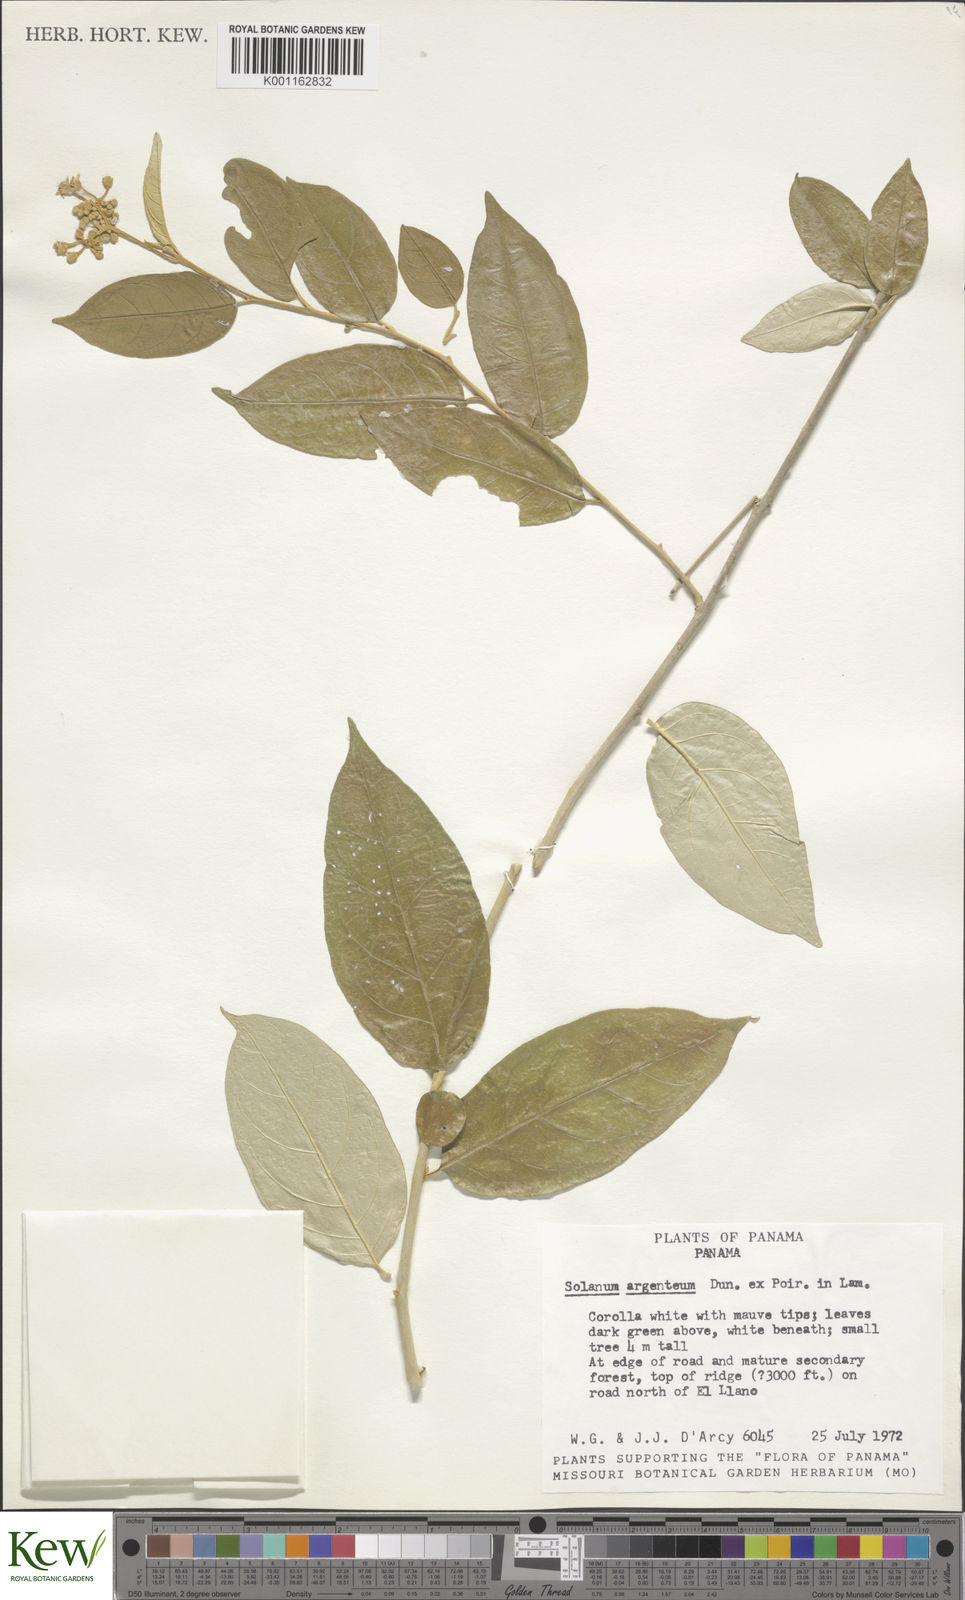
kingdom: Plantae
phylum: Tracheophyta
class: Magnoliopsida
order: Solanales
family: Solanaceae
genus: Solanum
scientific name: Solanum swartzianum
